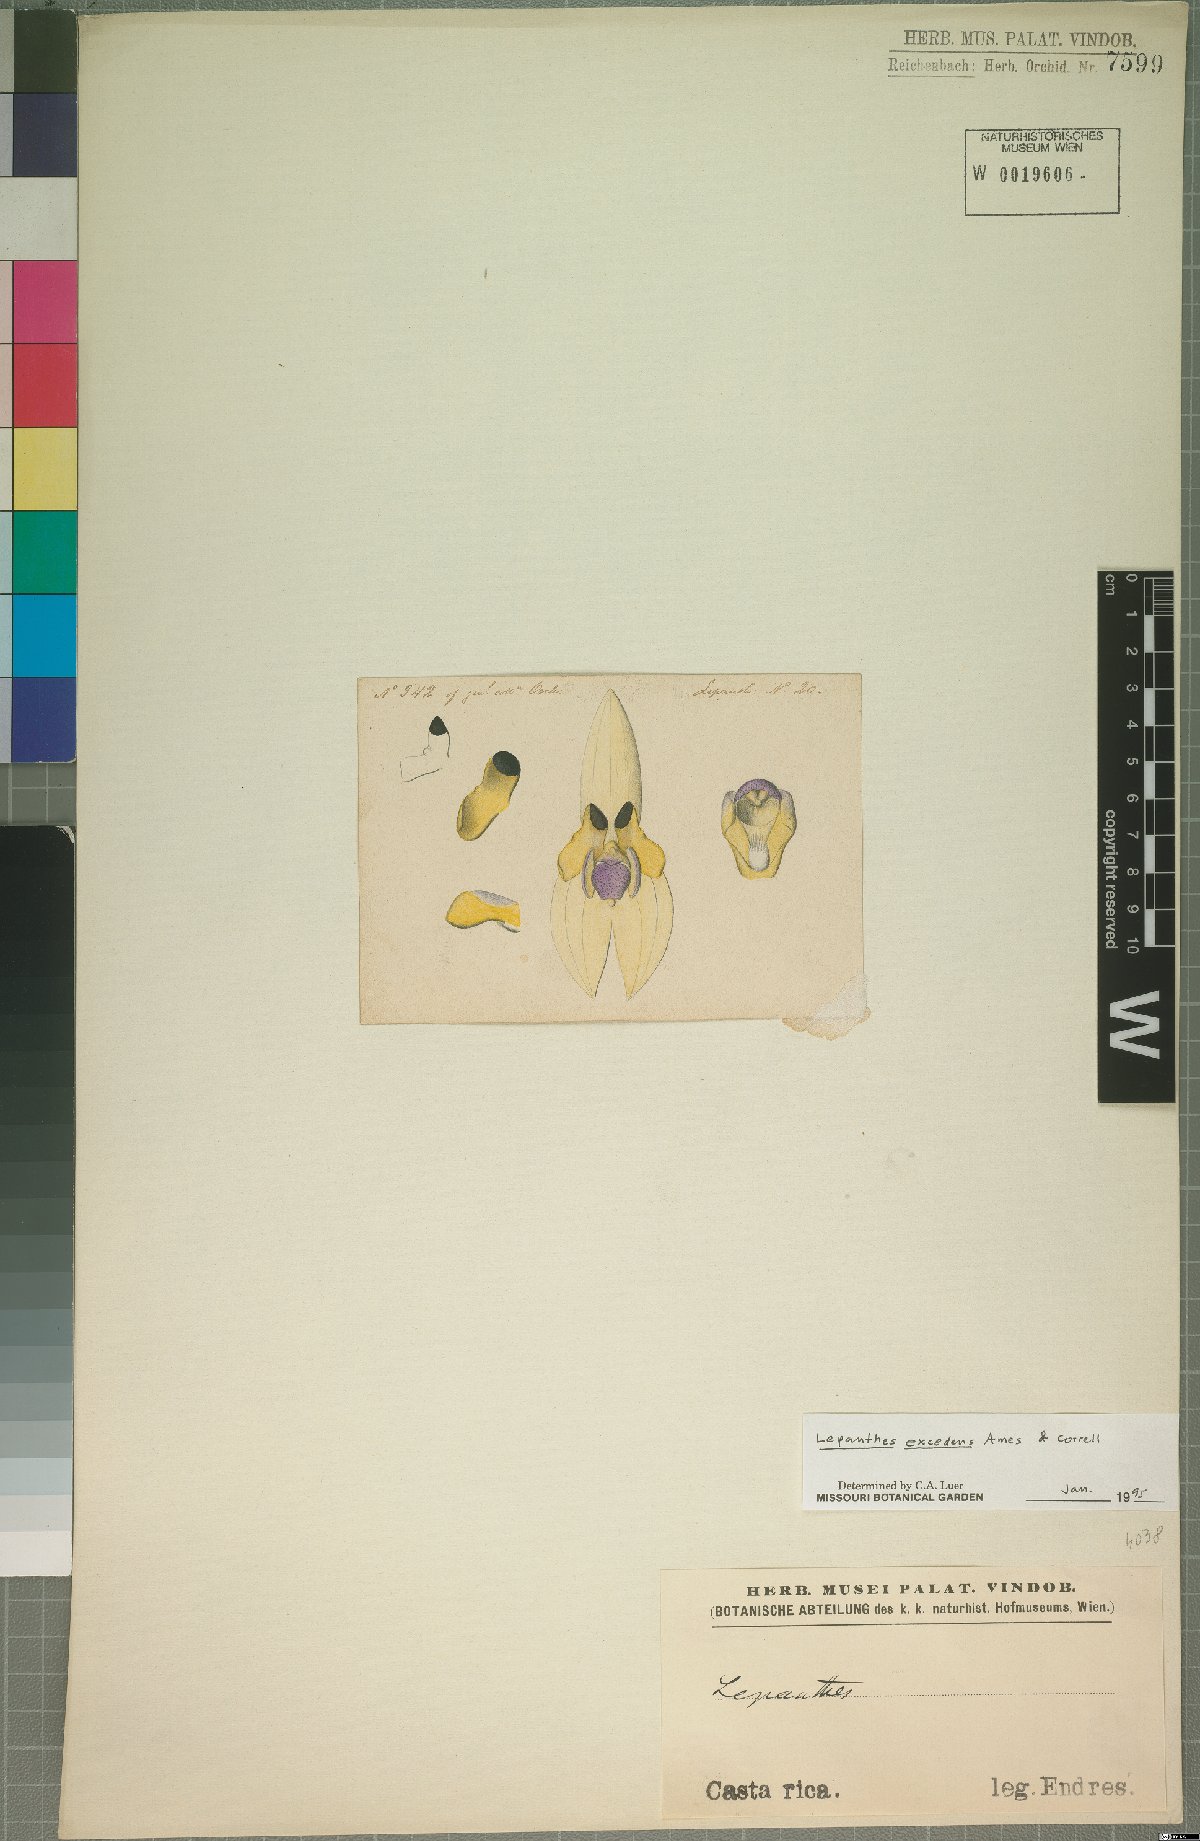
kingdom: Plantae
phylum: Tracheophyta
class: Liliopsida
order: Asparagales
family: Orchidaceae
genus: Lepanthes
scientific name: Lepanthes excedens
